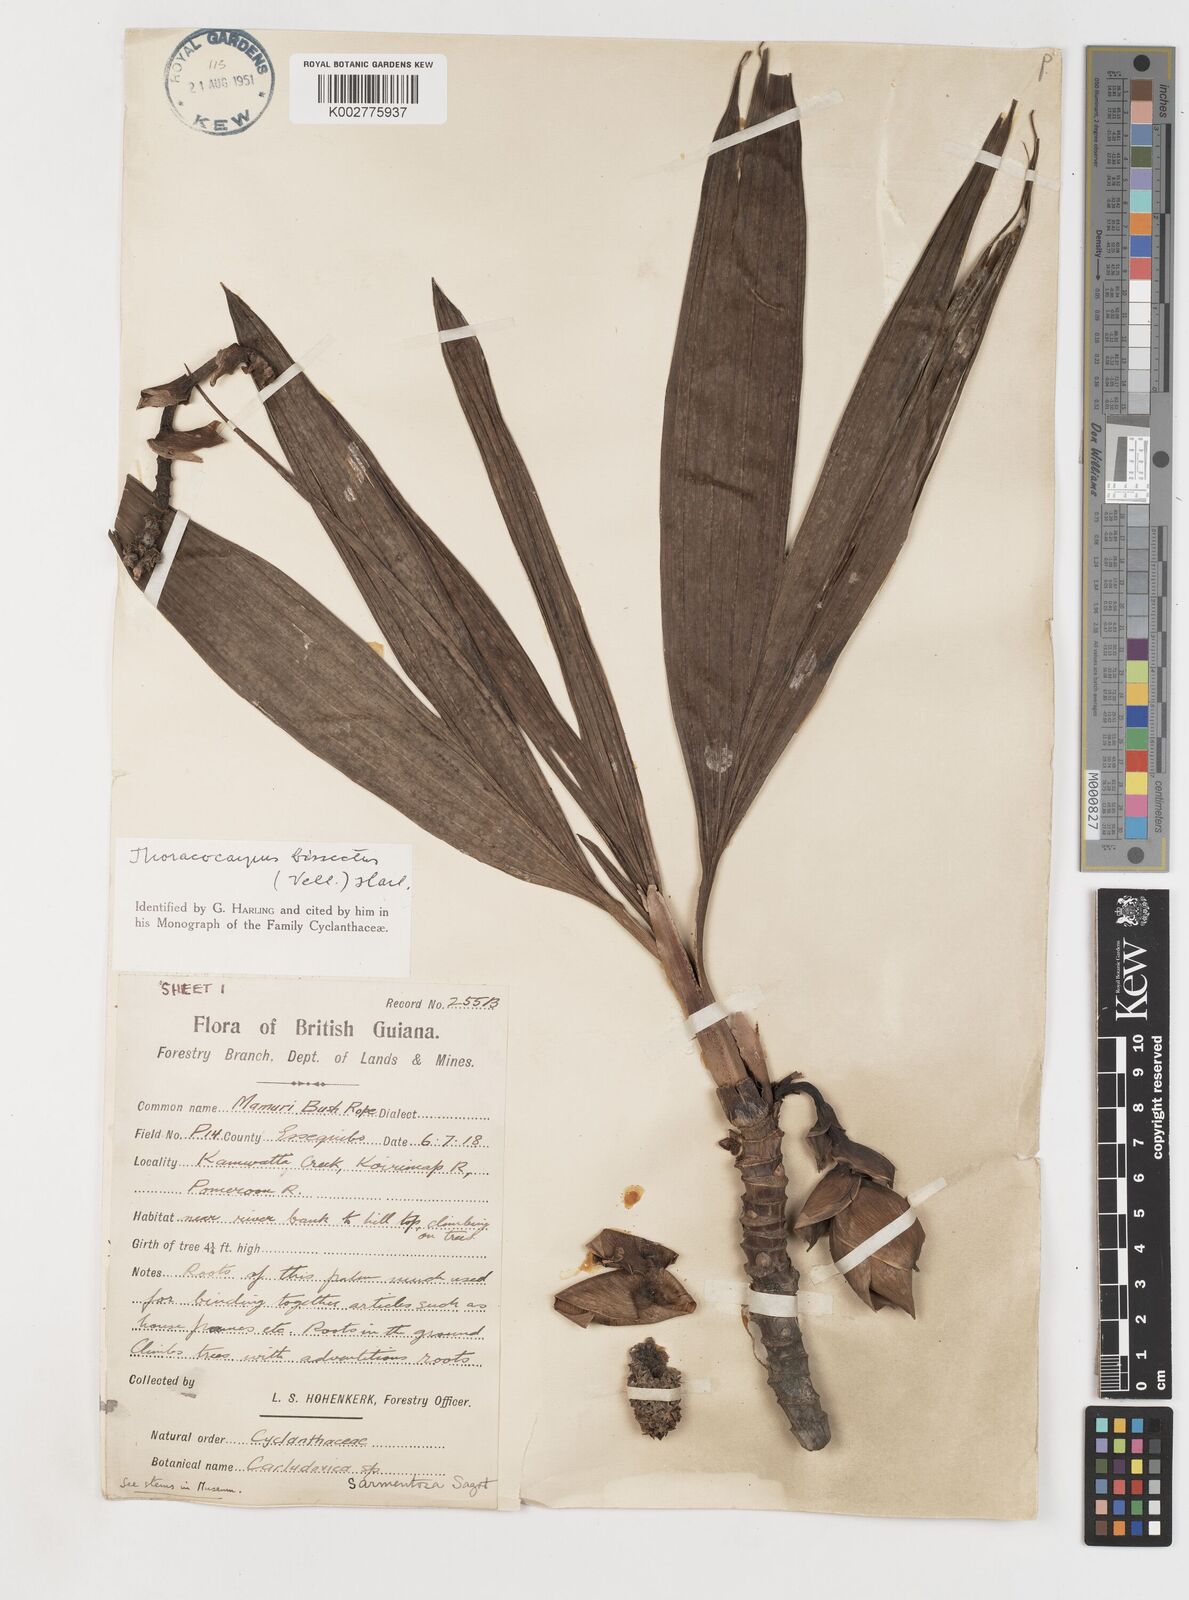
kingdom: Plantae
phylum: Tracheophyta
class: Liliopsida
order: Pandanales
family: Cyclanthaceae
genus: Thoracocarpus
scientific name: Thoracocarpus bissectus
